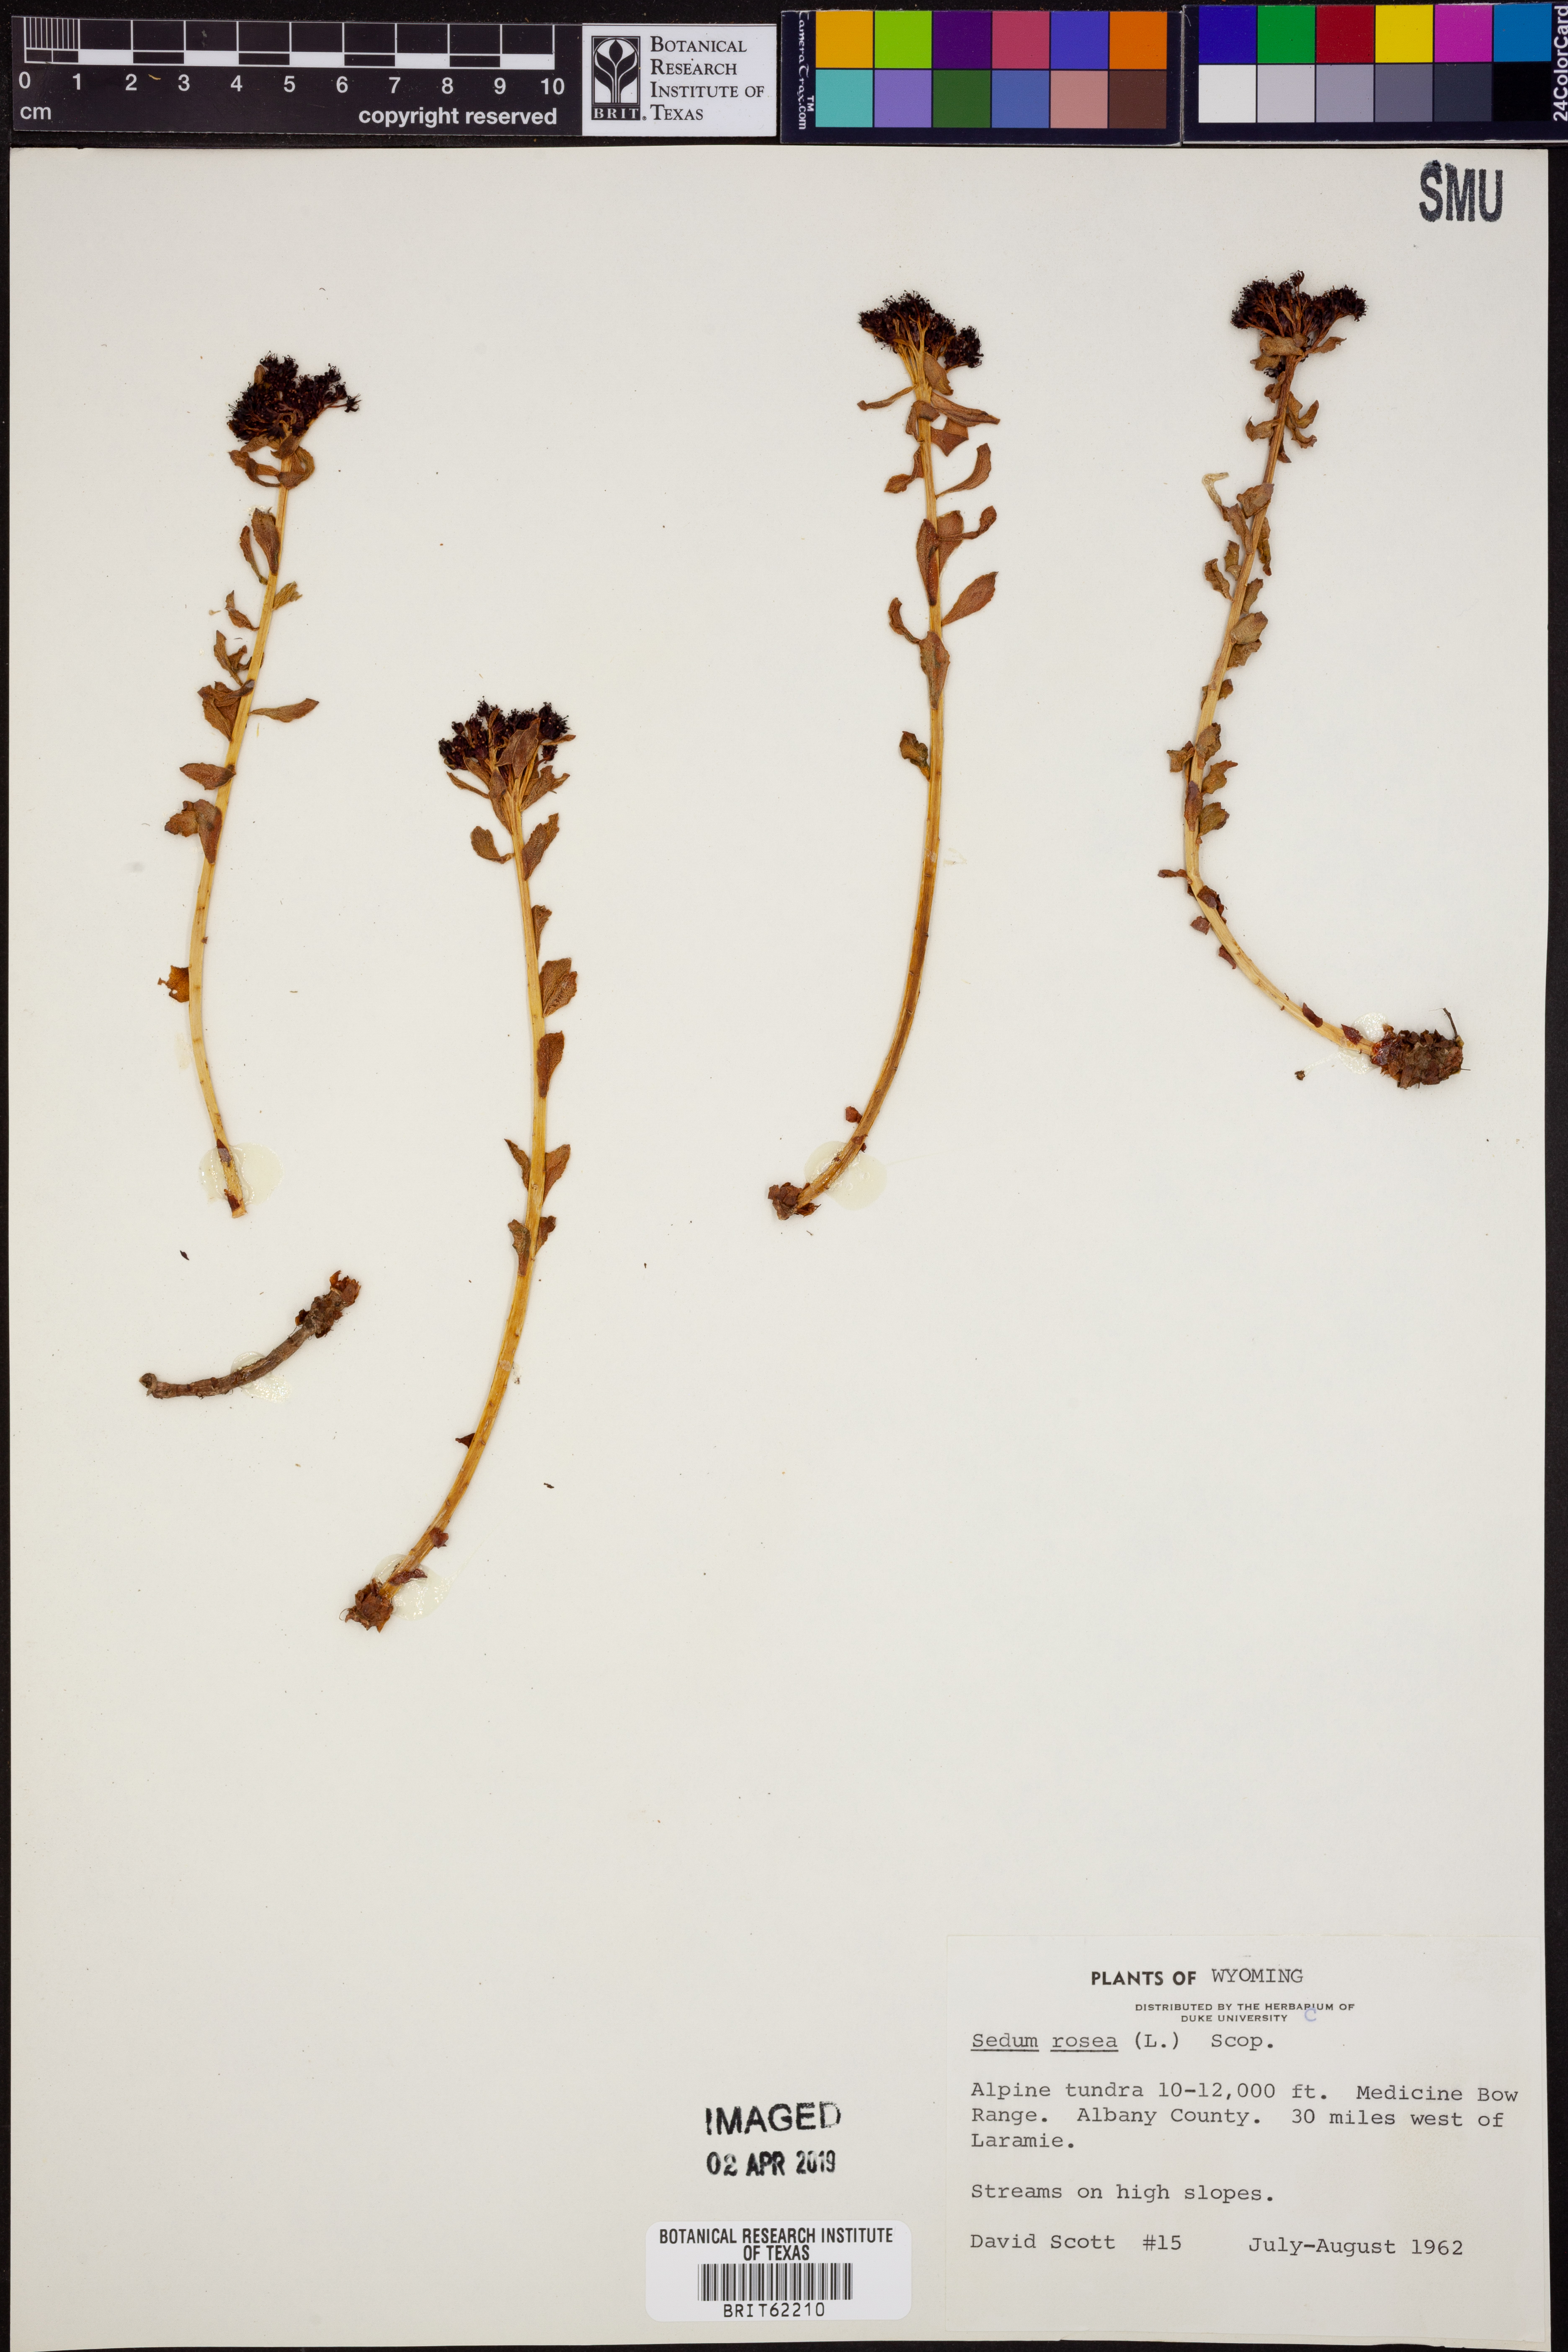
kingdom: Plantae
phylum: Tracheophyta
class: Magnoliopsida
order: Saxifragales
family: Crassulaceae
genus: Rhodiola
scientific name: Rhodiola rosea
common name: Roseroot
